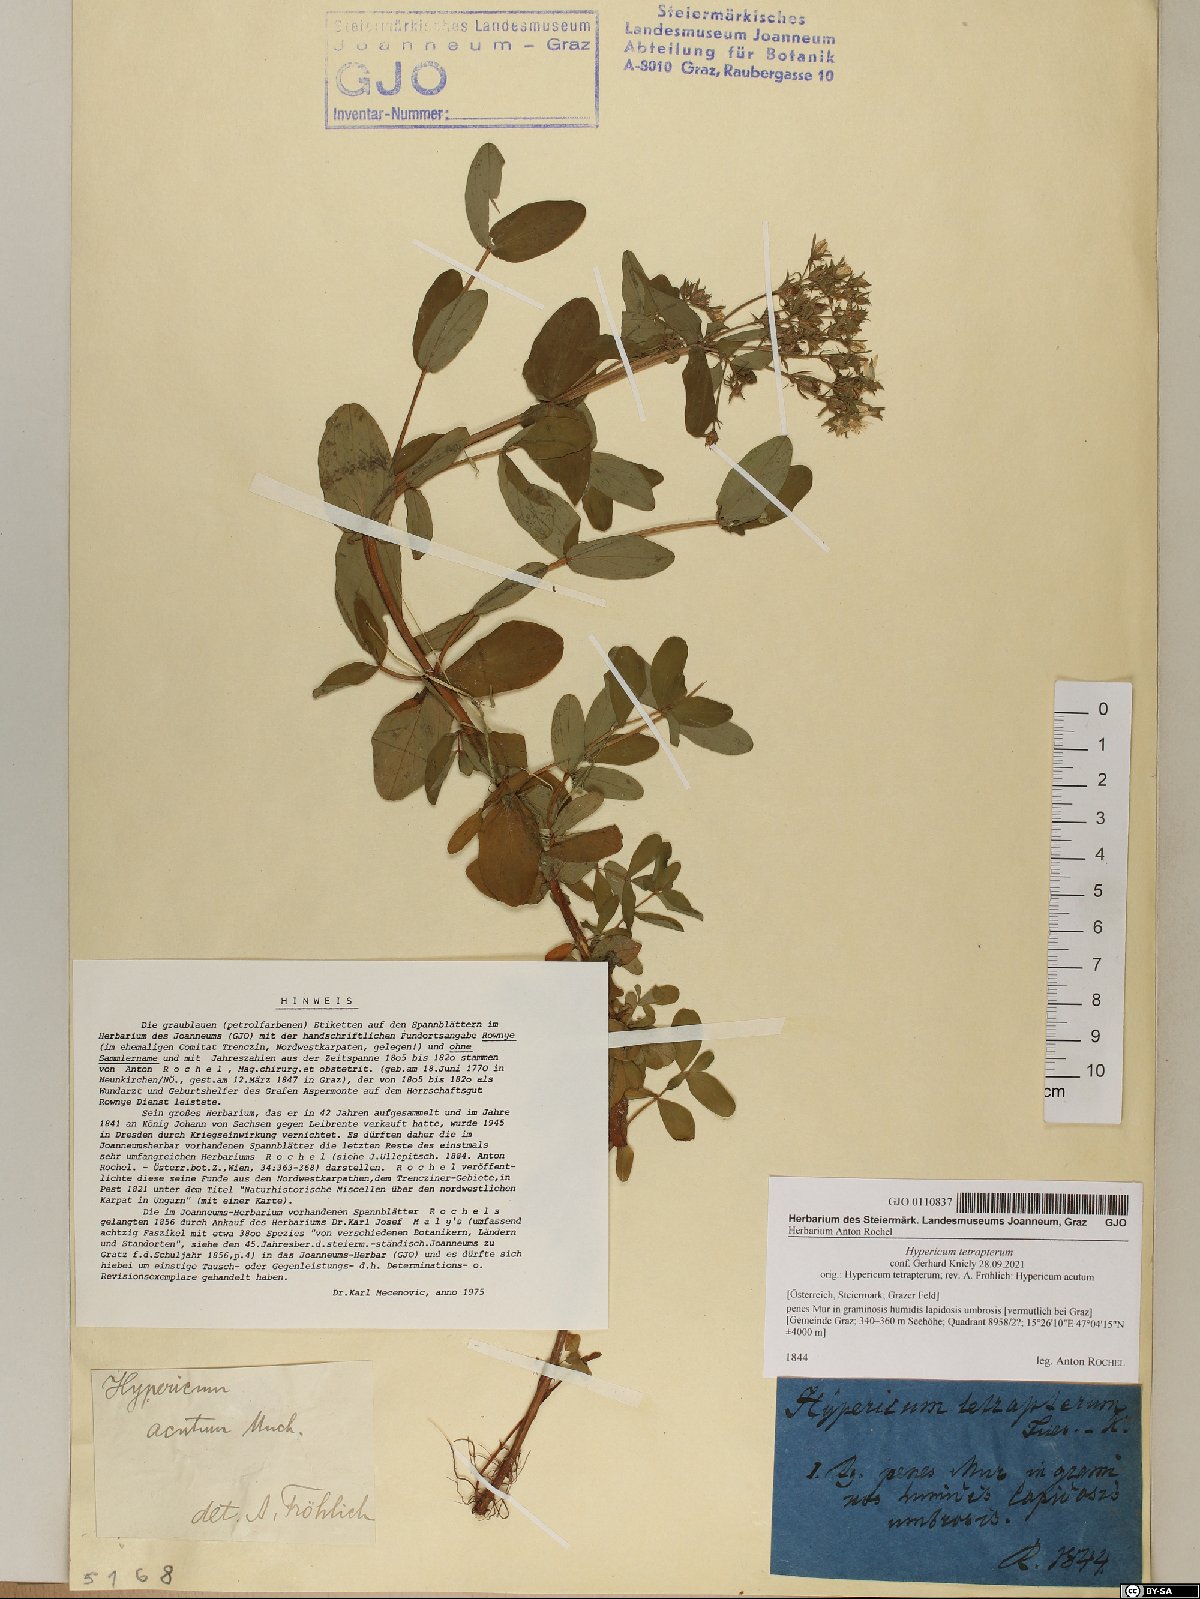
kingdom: Plantae
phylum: Tracheophyta
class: Magnoliopsida
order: Malpighiales
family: Hypericaceae
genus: Hypericum
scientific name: Hypericum tetrapterum
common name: Square-stalked st. john's-wort
